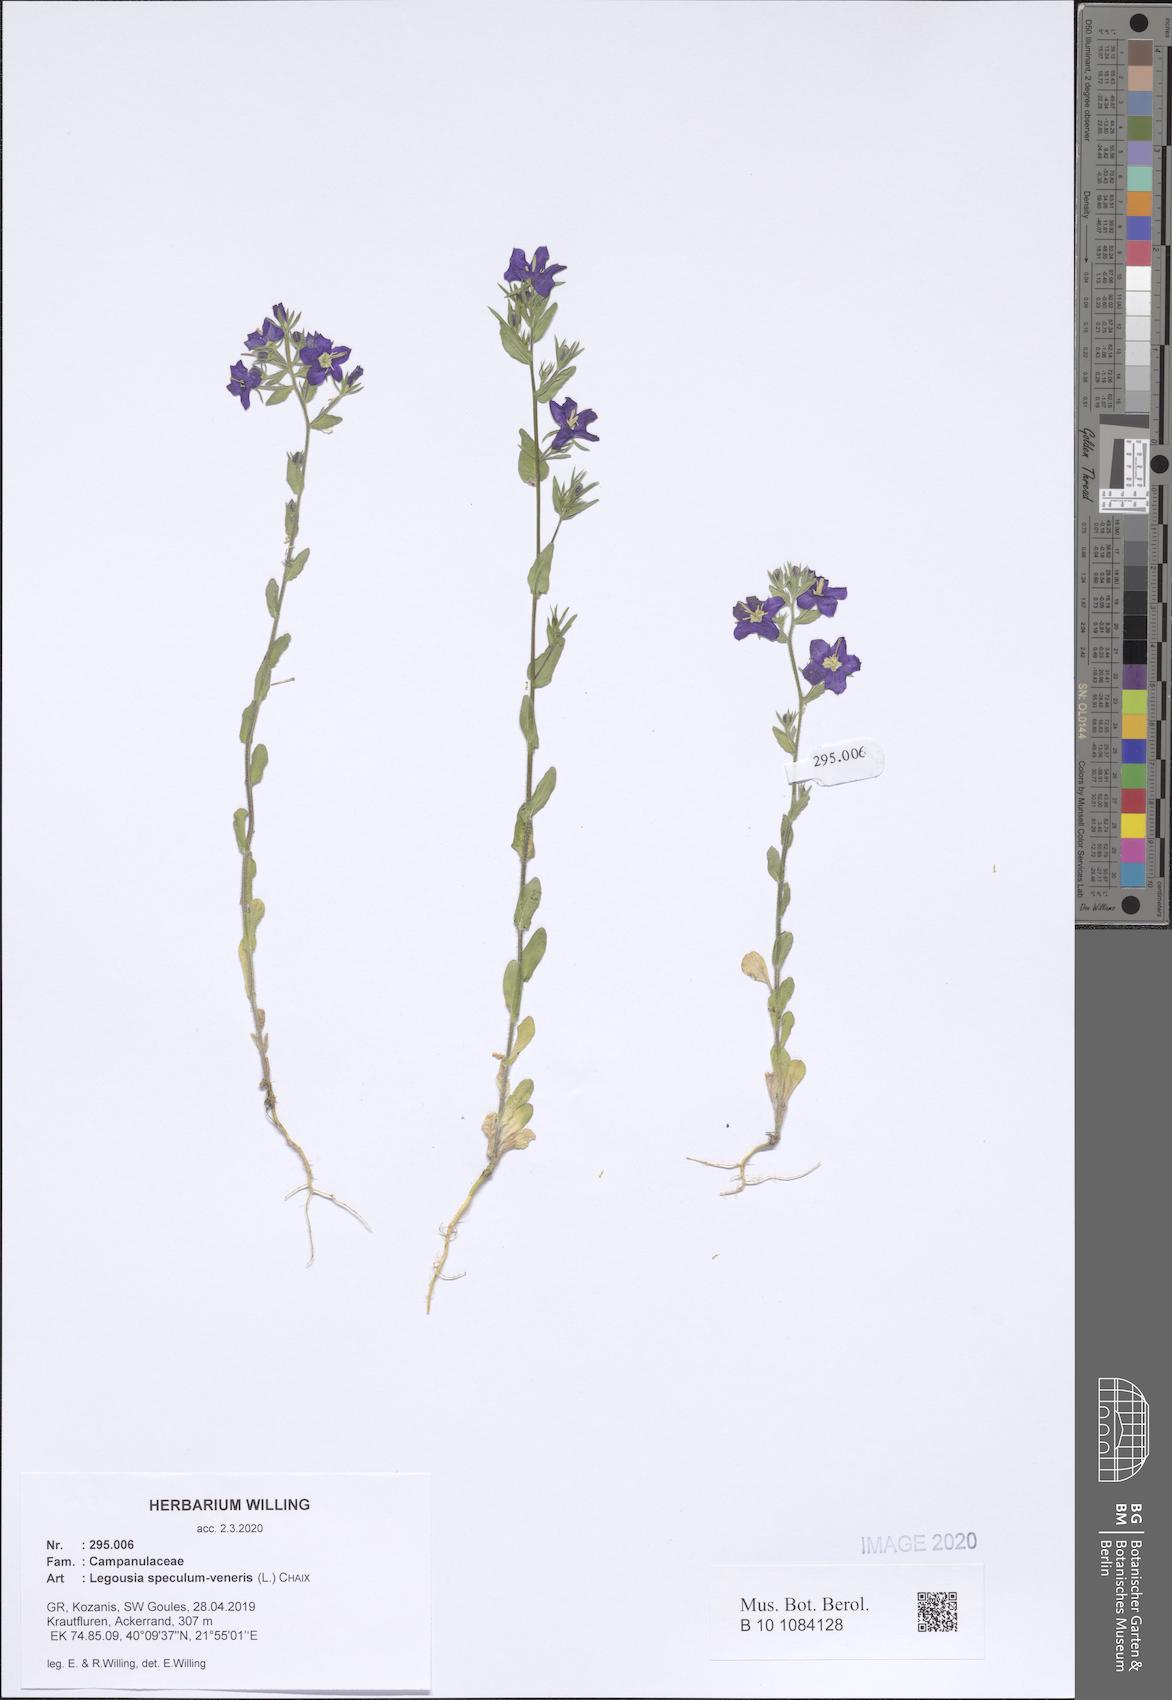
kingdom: Plantae
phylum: Tracheophyta
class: Magnoliopsida
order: Asterales
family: Campanulaceae
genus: Legousia
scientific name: Legousia speculum-veneris
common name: Large venus's-looking-glass
